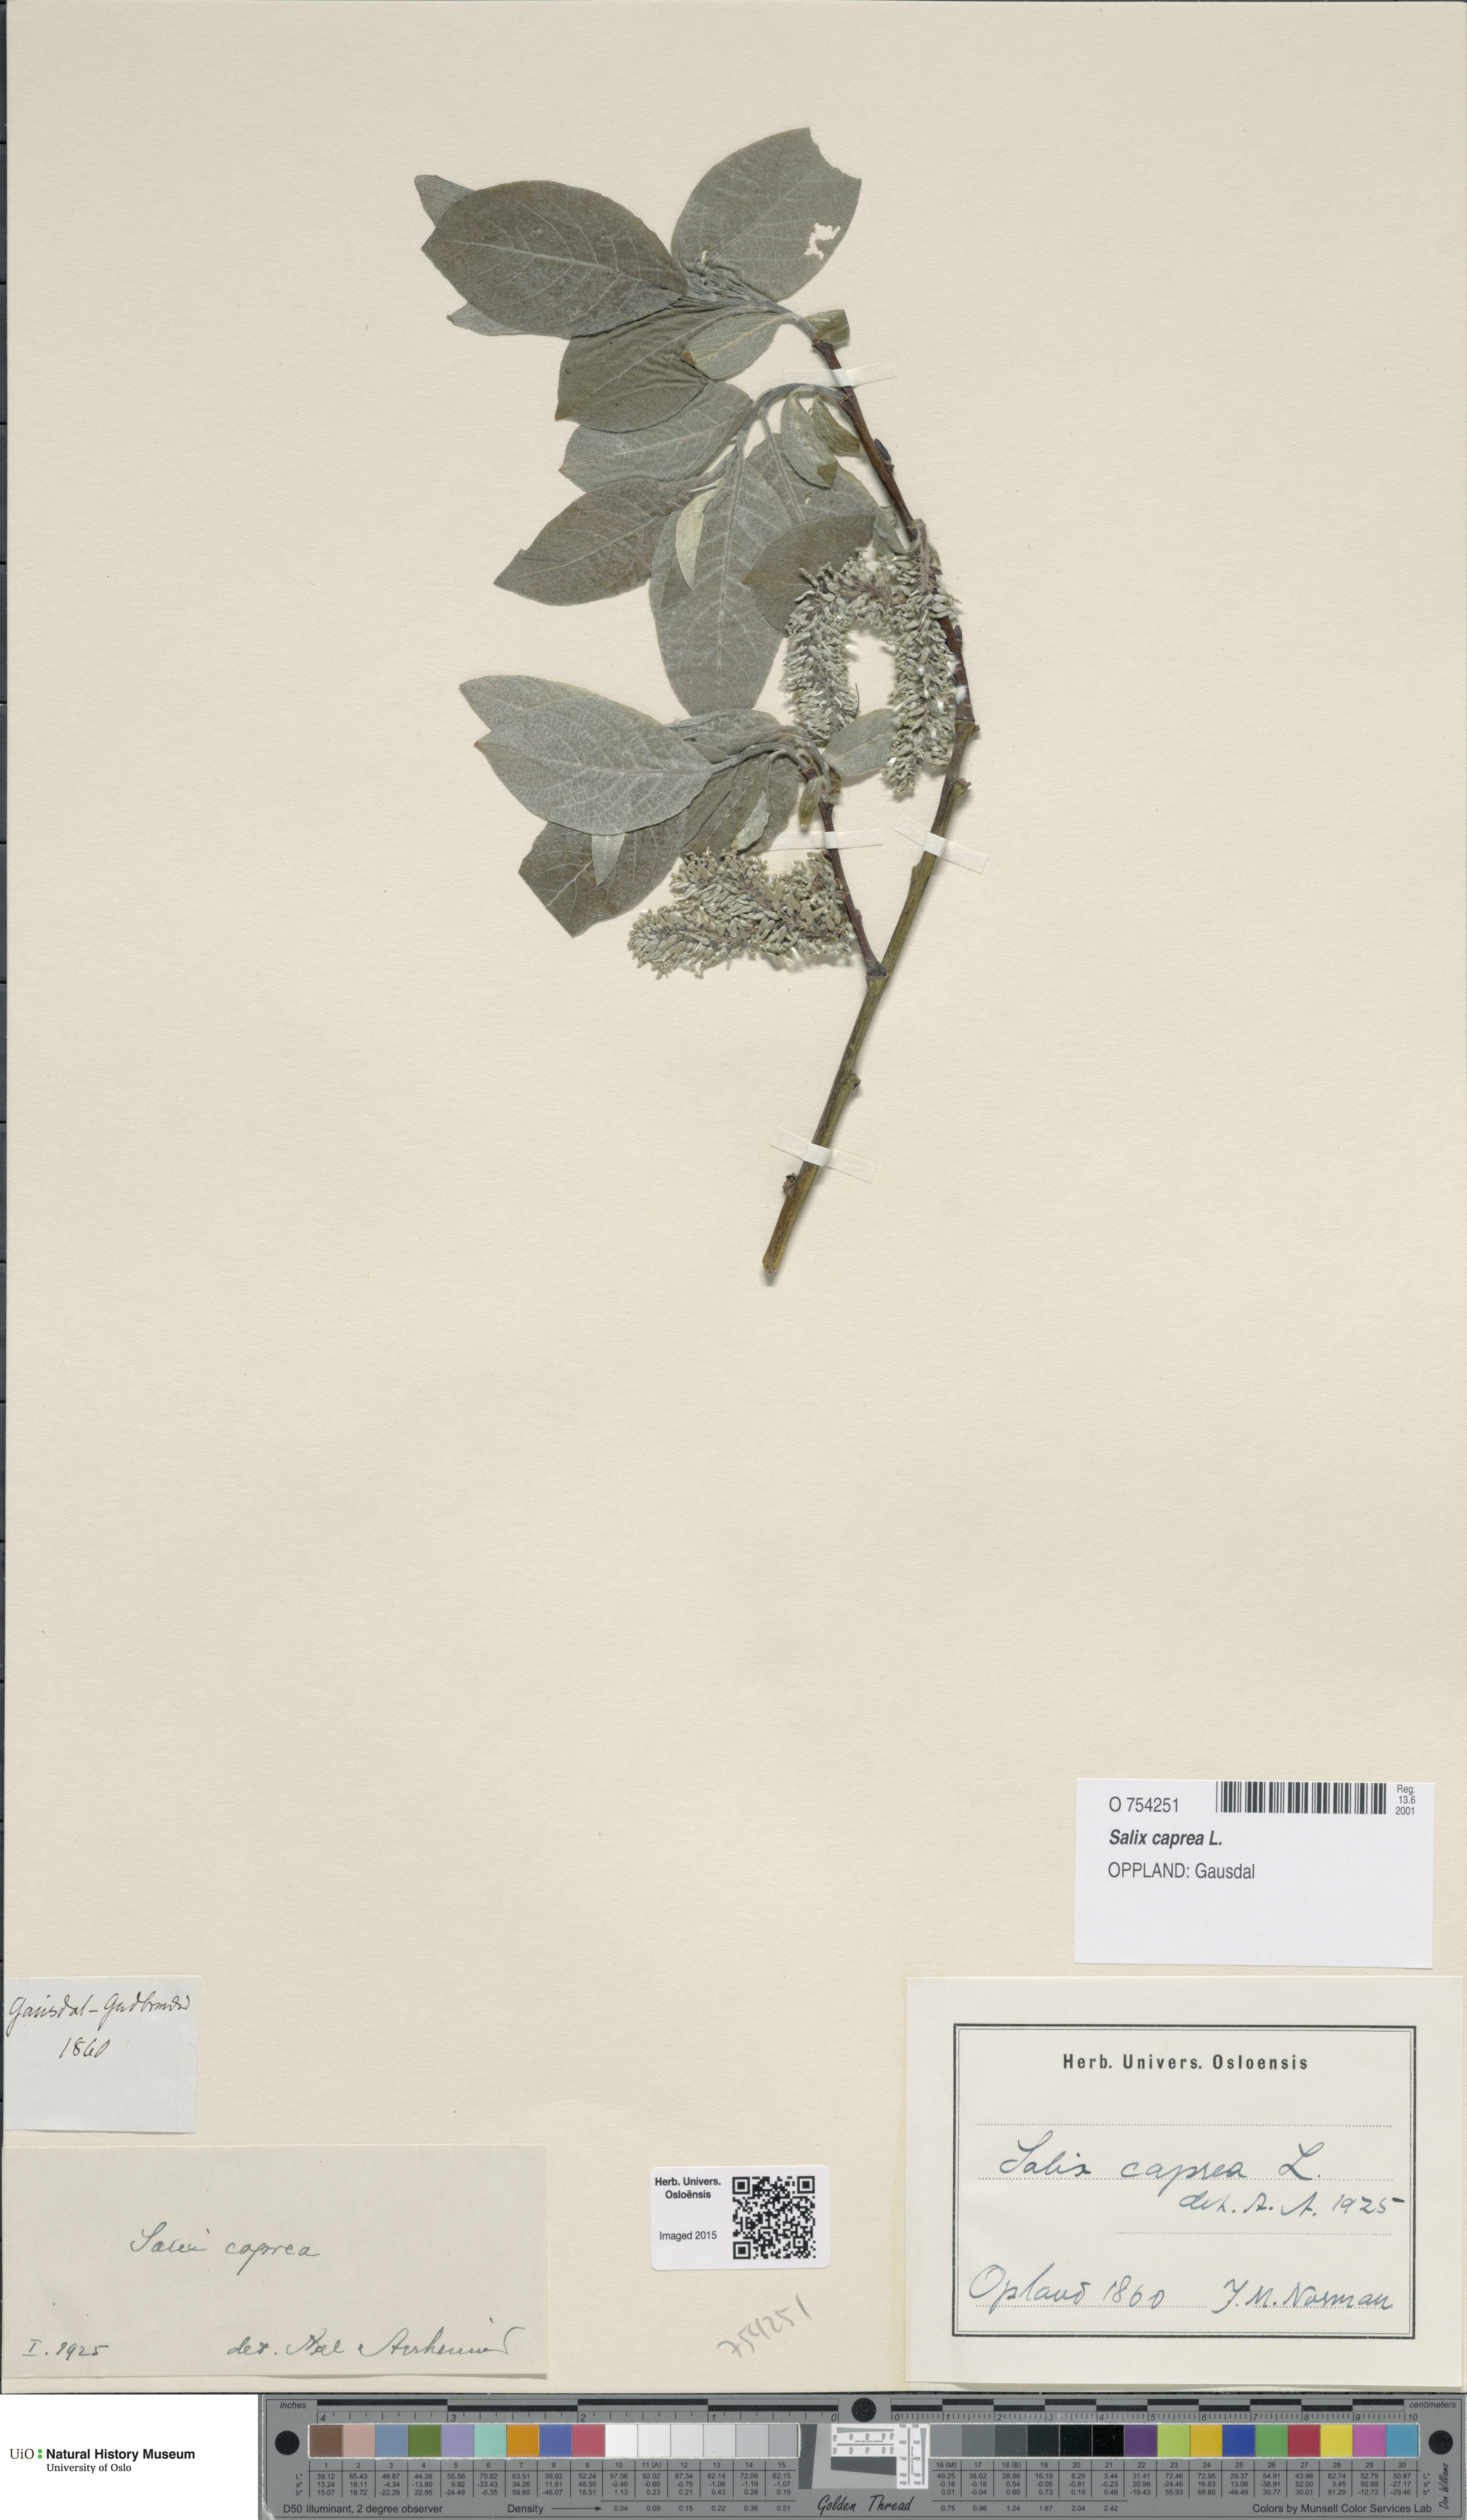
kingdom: Plantae
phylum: Tracheophyta
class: Magnoliopsida
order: Malpighiales
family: Salicaceae
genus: Salix
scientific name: Salix caprea
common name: Goat willow
